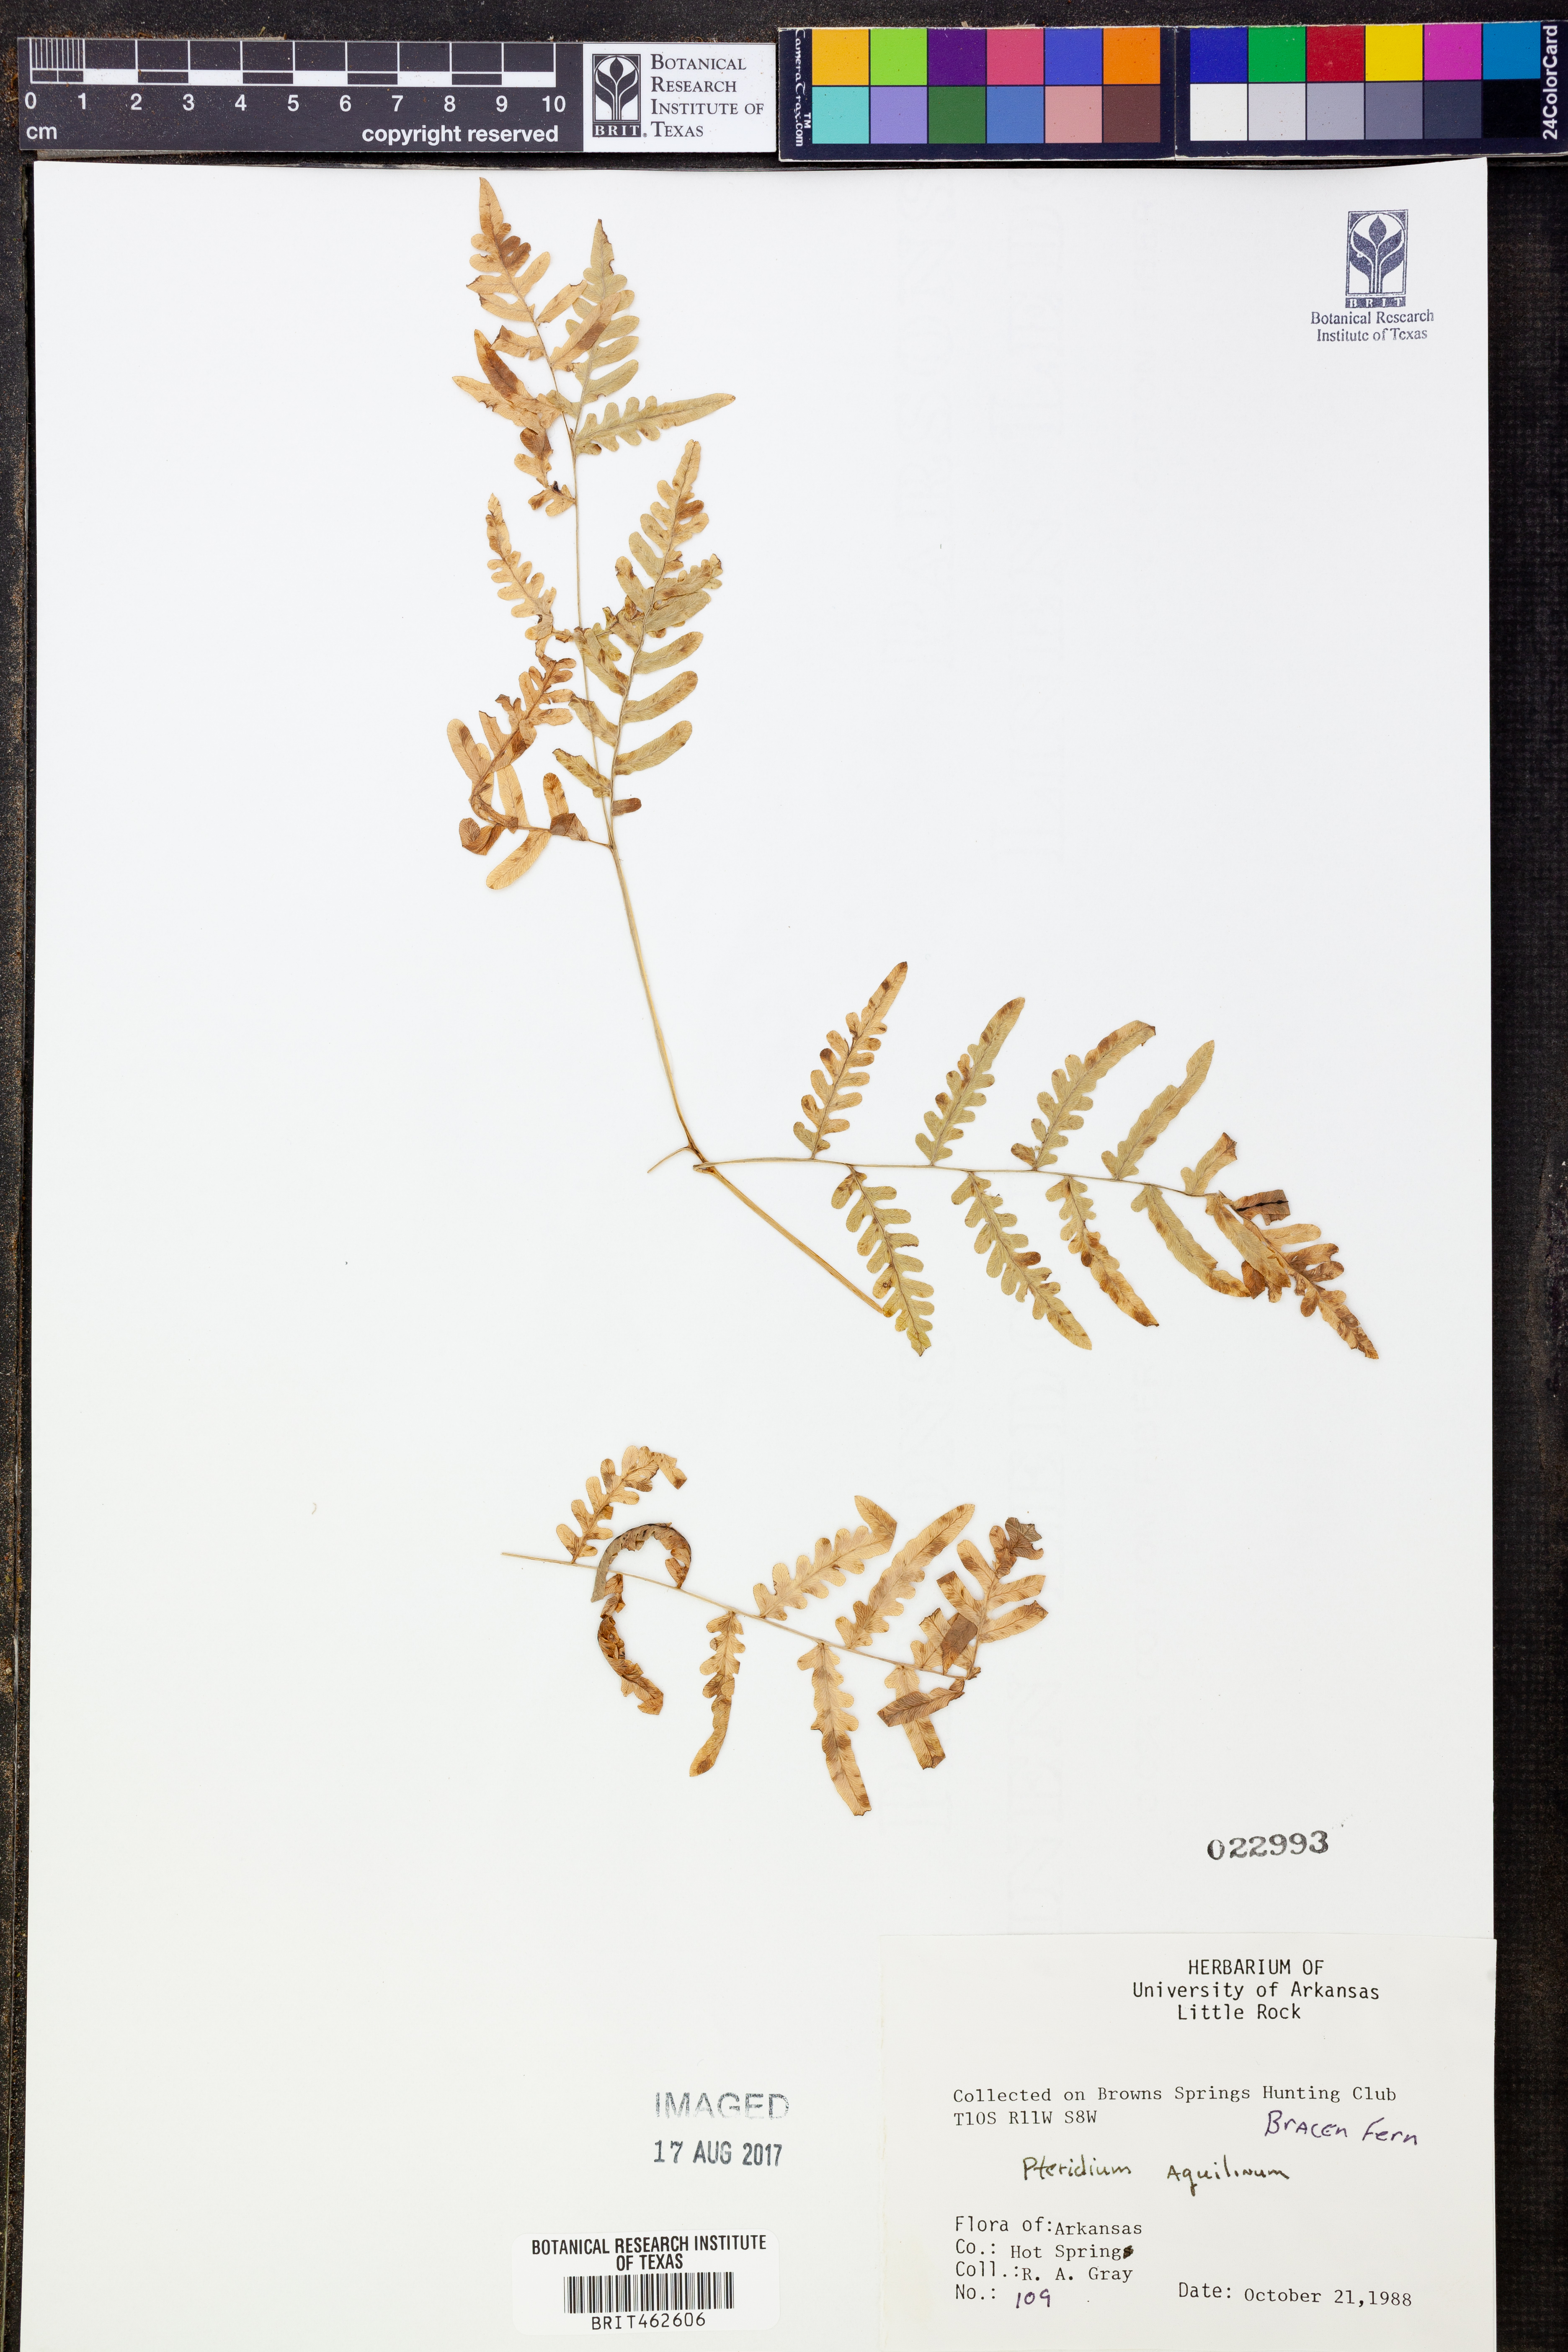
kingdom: Plantae
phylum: Tracheophyta
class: Polypodiopsida
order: Polypodiales
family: Dennstaedtiaceae
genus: Pteridium
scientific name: Pteridium aquilinum
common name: Bracken
